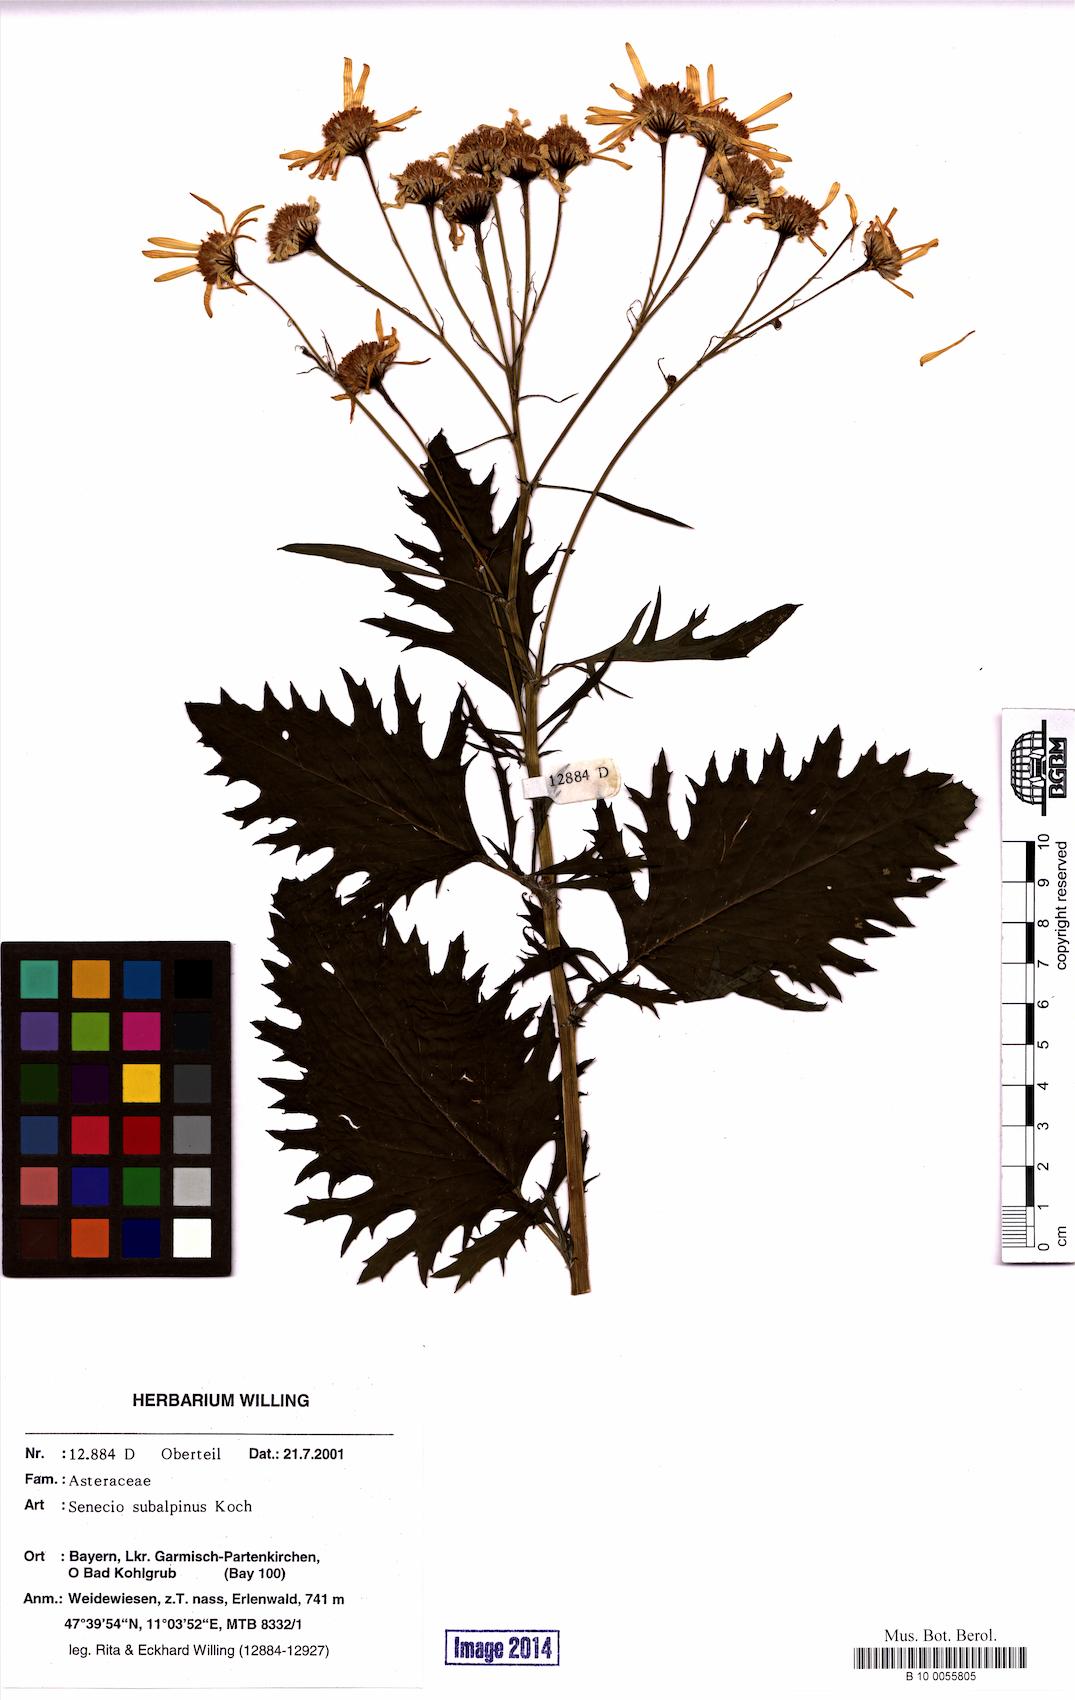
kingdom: Plantae
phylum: Tracheophyta
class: Magnoliopsida
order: Asterales
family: Asteraceae
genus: Jacobaea
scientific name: Jacobaea subalpina
